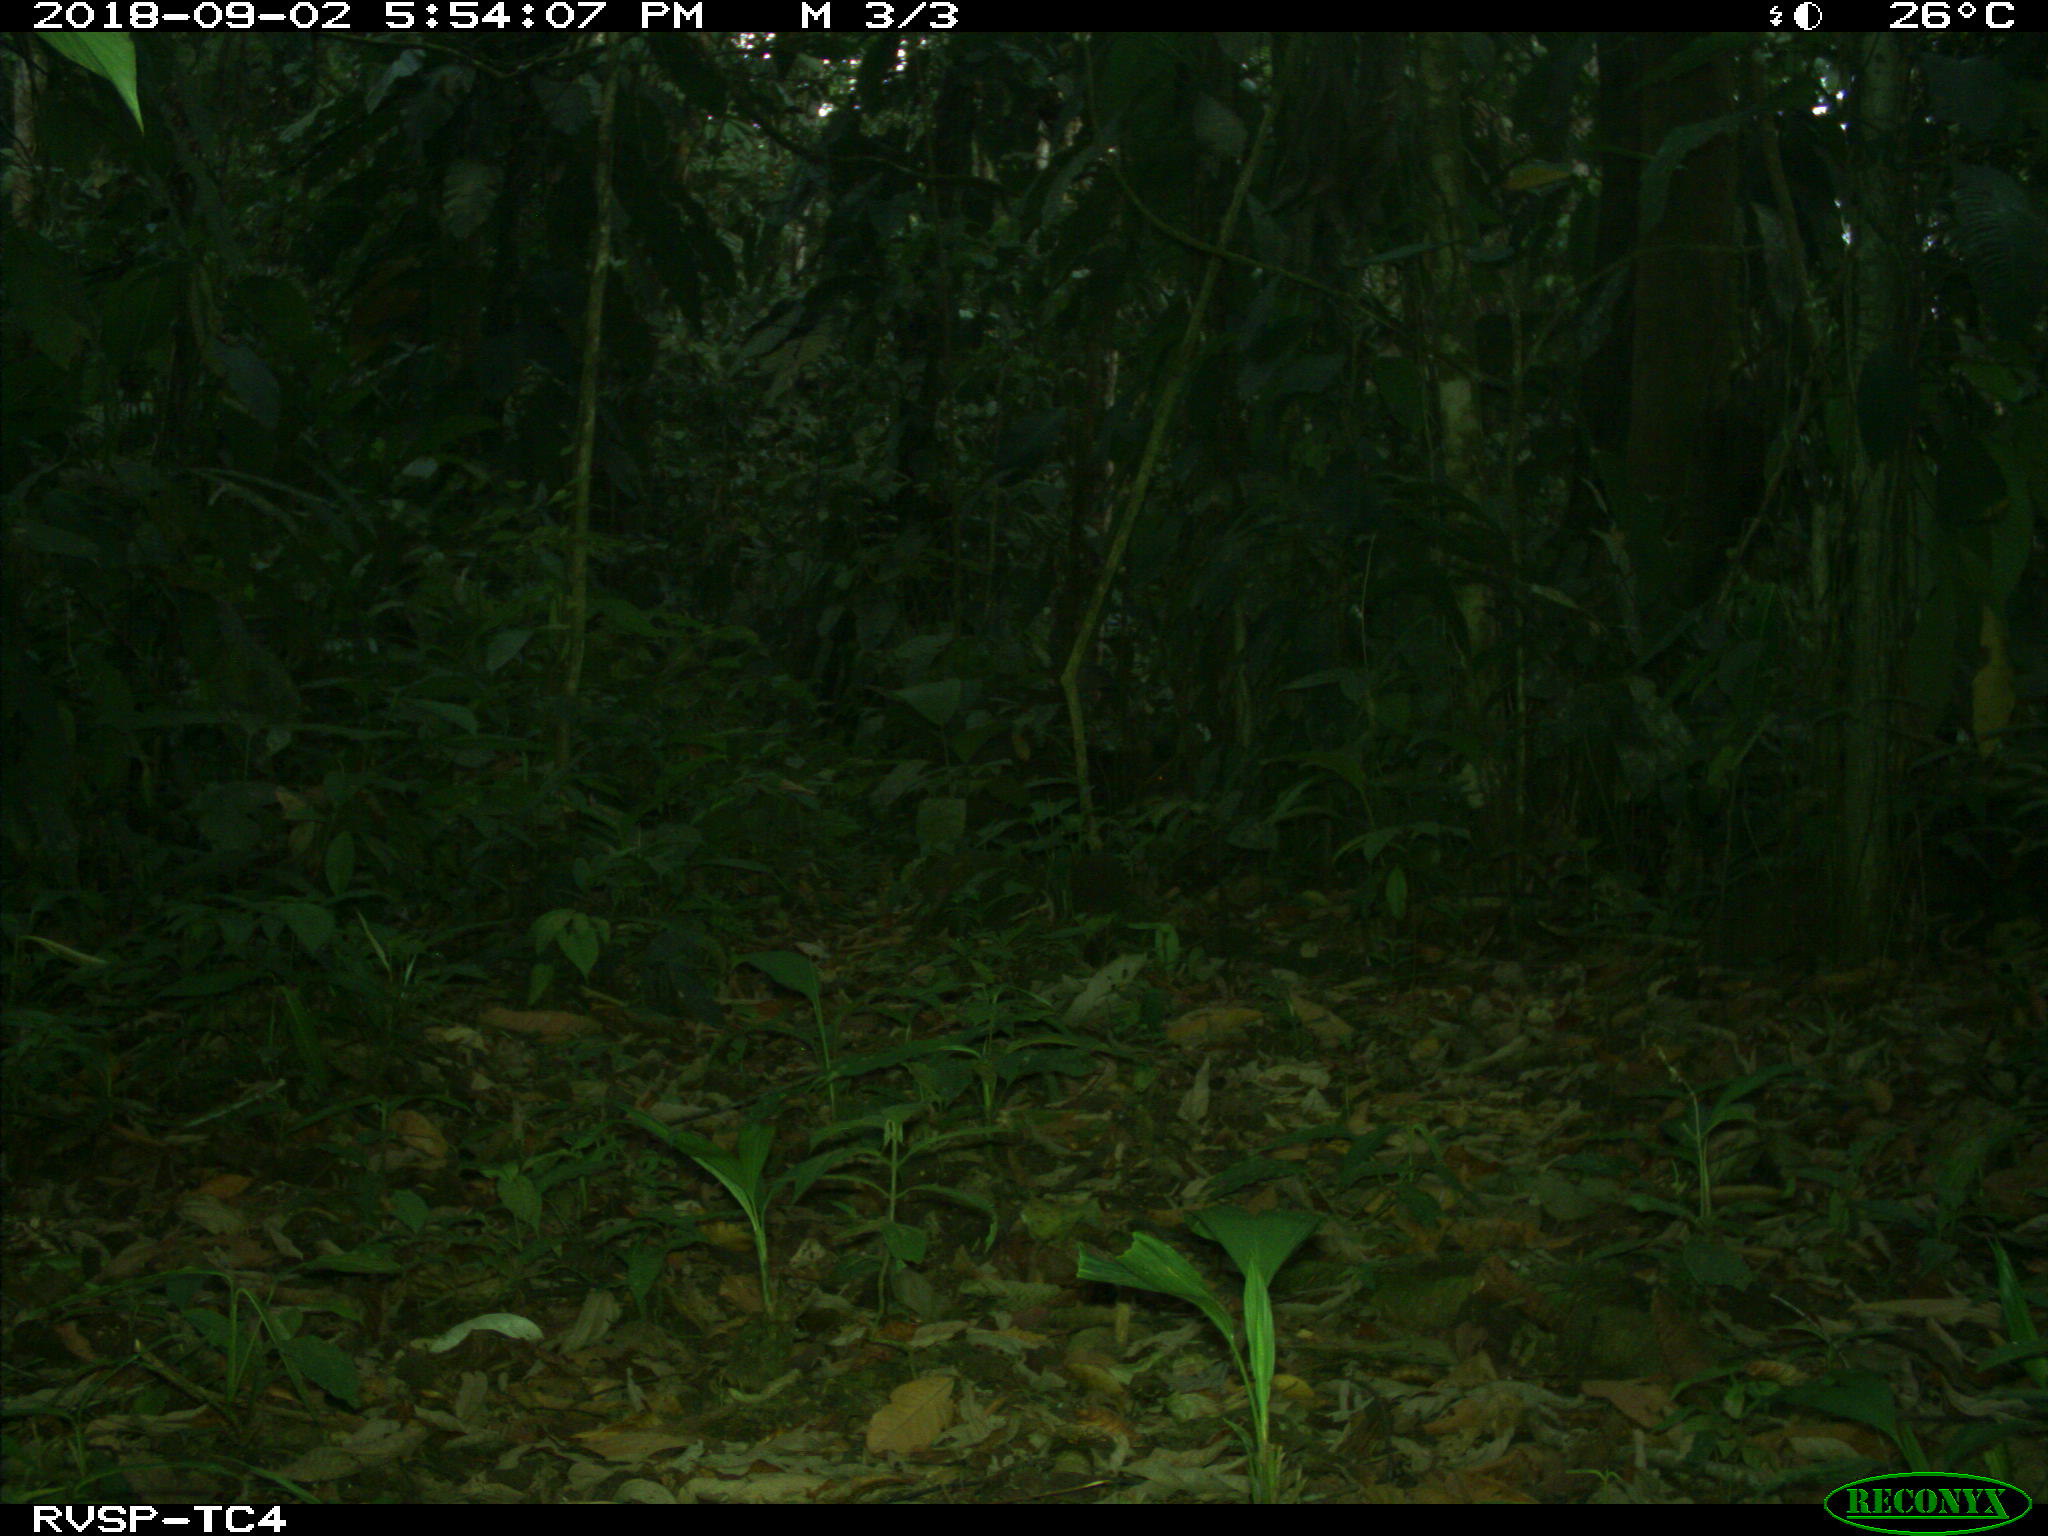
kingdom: Animalia
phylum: Chordata
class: Mammalia
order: Artiodactyla
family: Tayassuidae
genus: Tayassu
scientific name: Tayassu pecari
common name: White-lipped peccary
